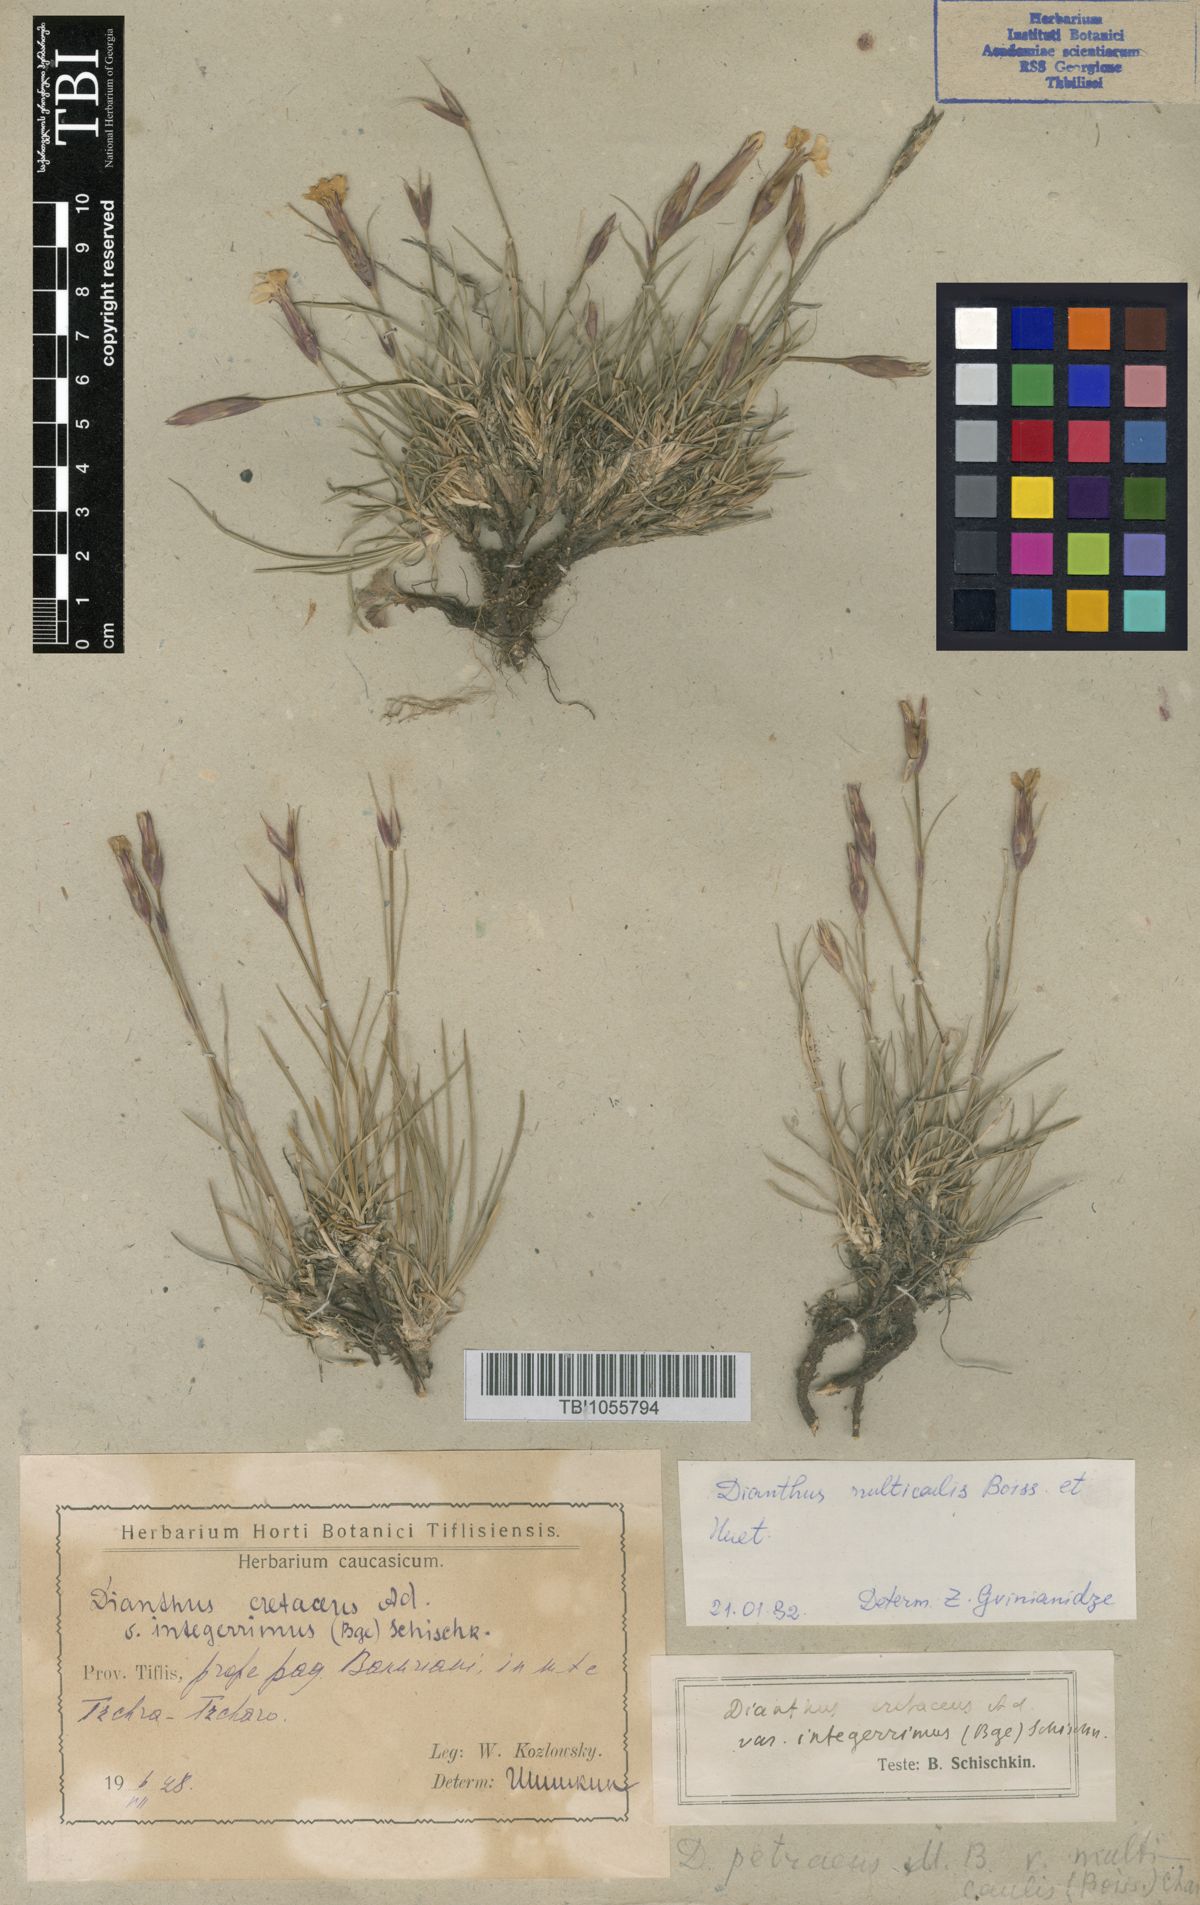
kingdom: Plantae
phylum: Tracheophyta
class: Magnoliopsida
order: Caryophyllales
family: Caryophyllaceae
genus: Dianthus
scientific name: Dianthus cretaceus
